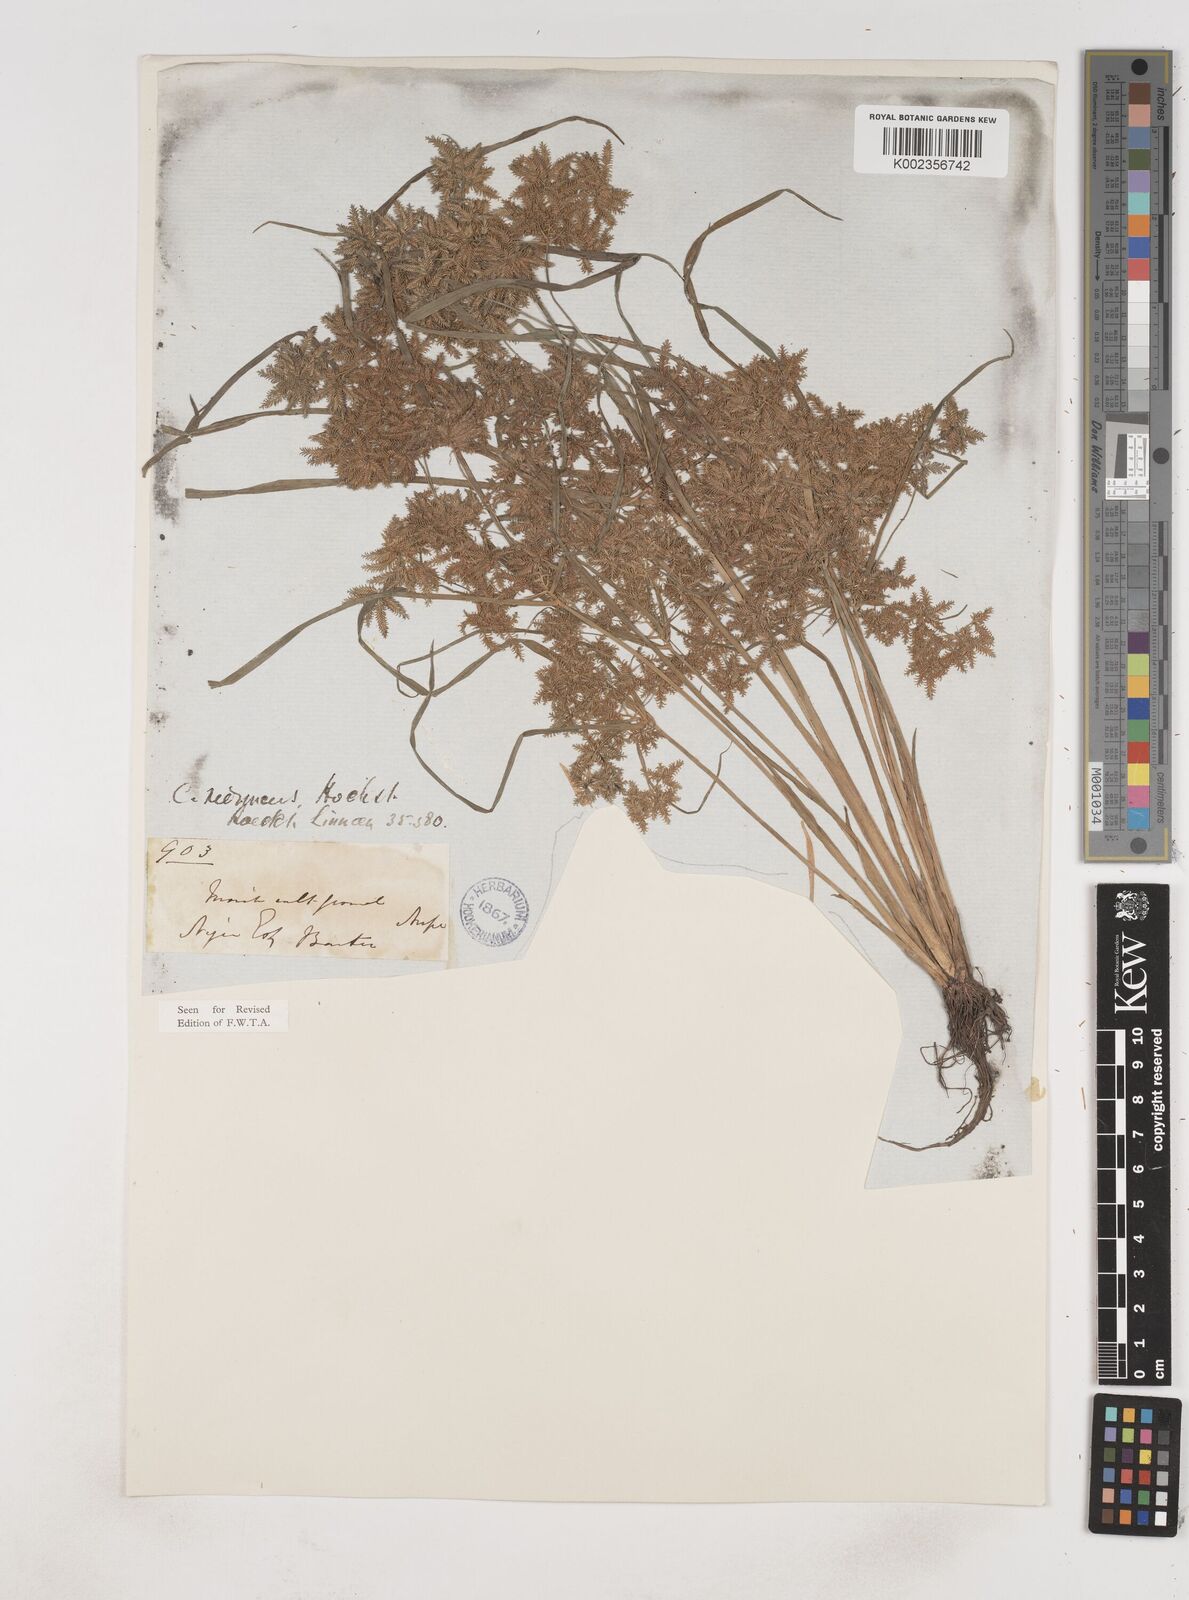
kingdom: Plantae
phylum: Tracheophyta
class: Liliopsida
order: Poales
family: Cyperaceae
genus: Cyperus
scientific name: Cyperus reduncus
